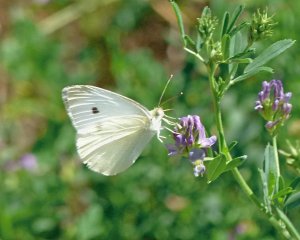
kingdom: Animalia
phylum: Arthropoda
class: Insecta
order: Lepidoptera
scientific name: Lepidoptera
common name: Butterflies
